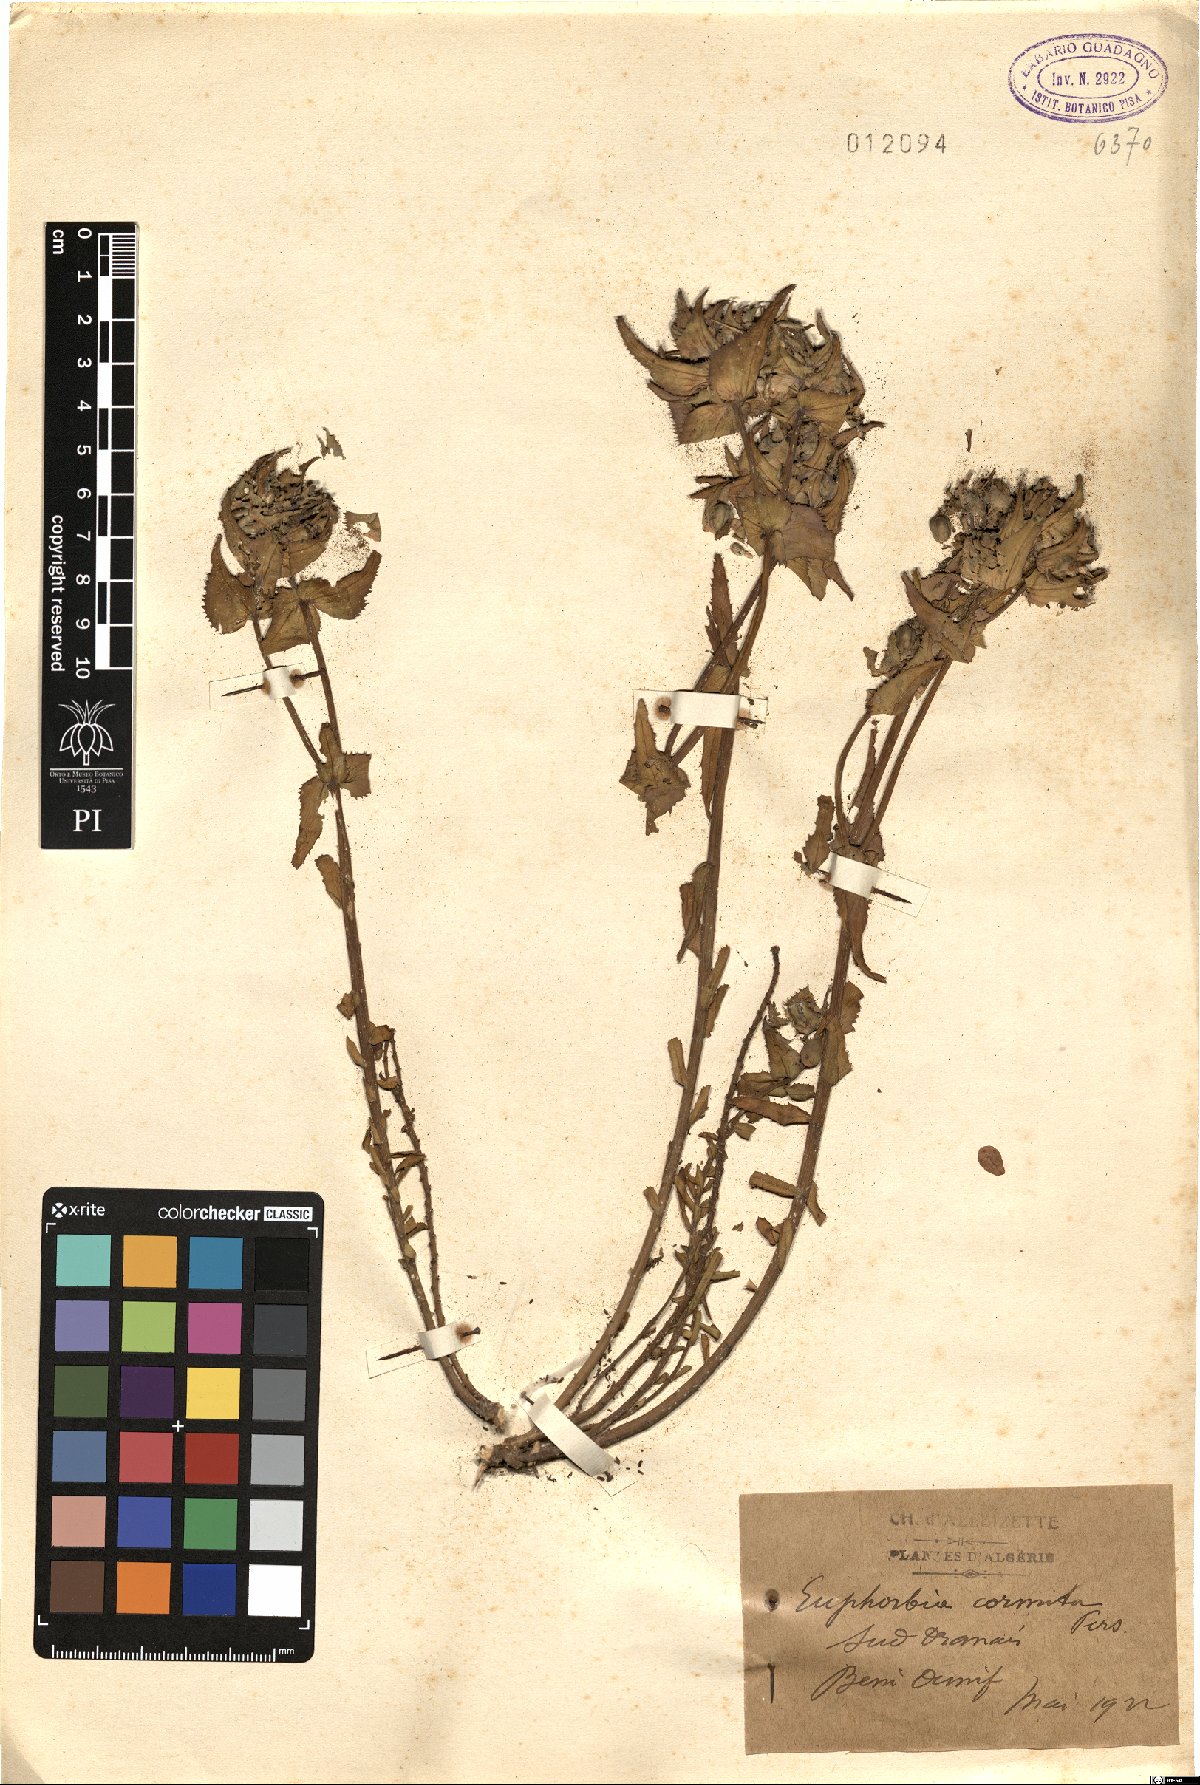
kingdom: Plantae
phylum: Tracheophyta
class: Magnoliopsida
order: Malpighiales
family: Euphorbiaceae
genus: Euphorbia
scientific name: Euphorbia retusa
